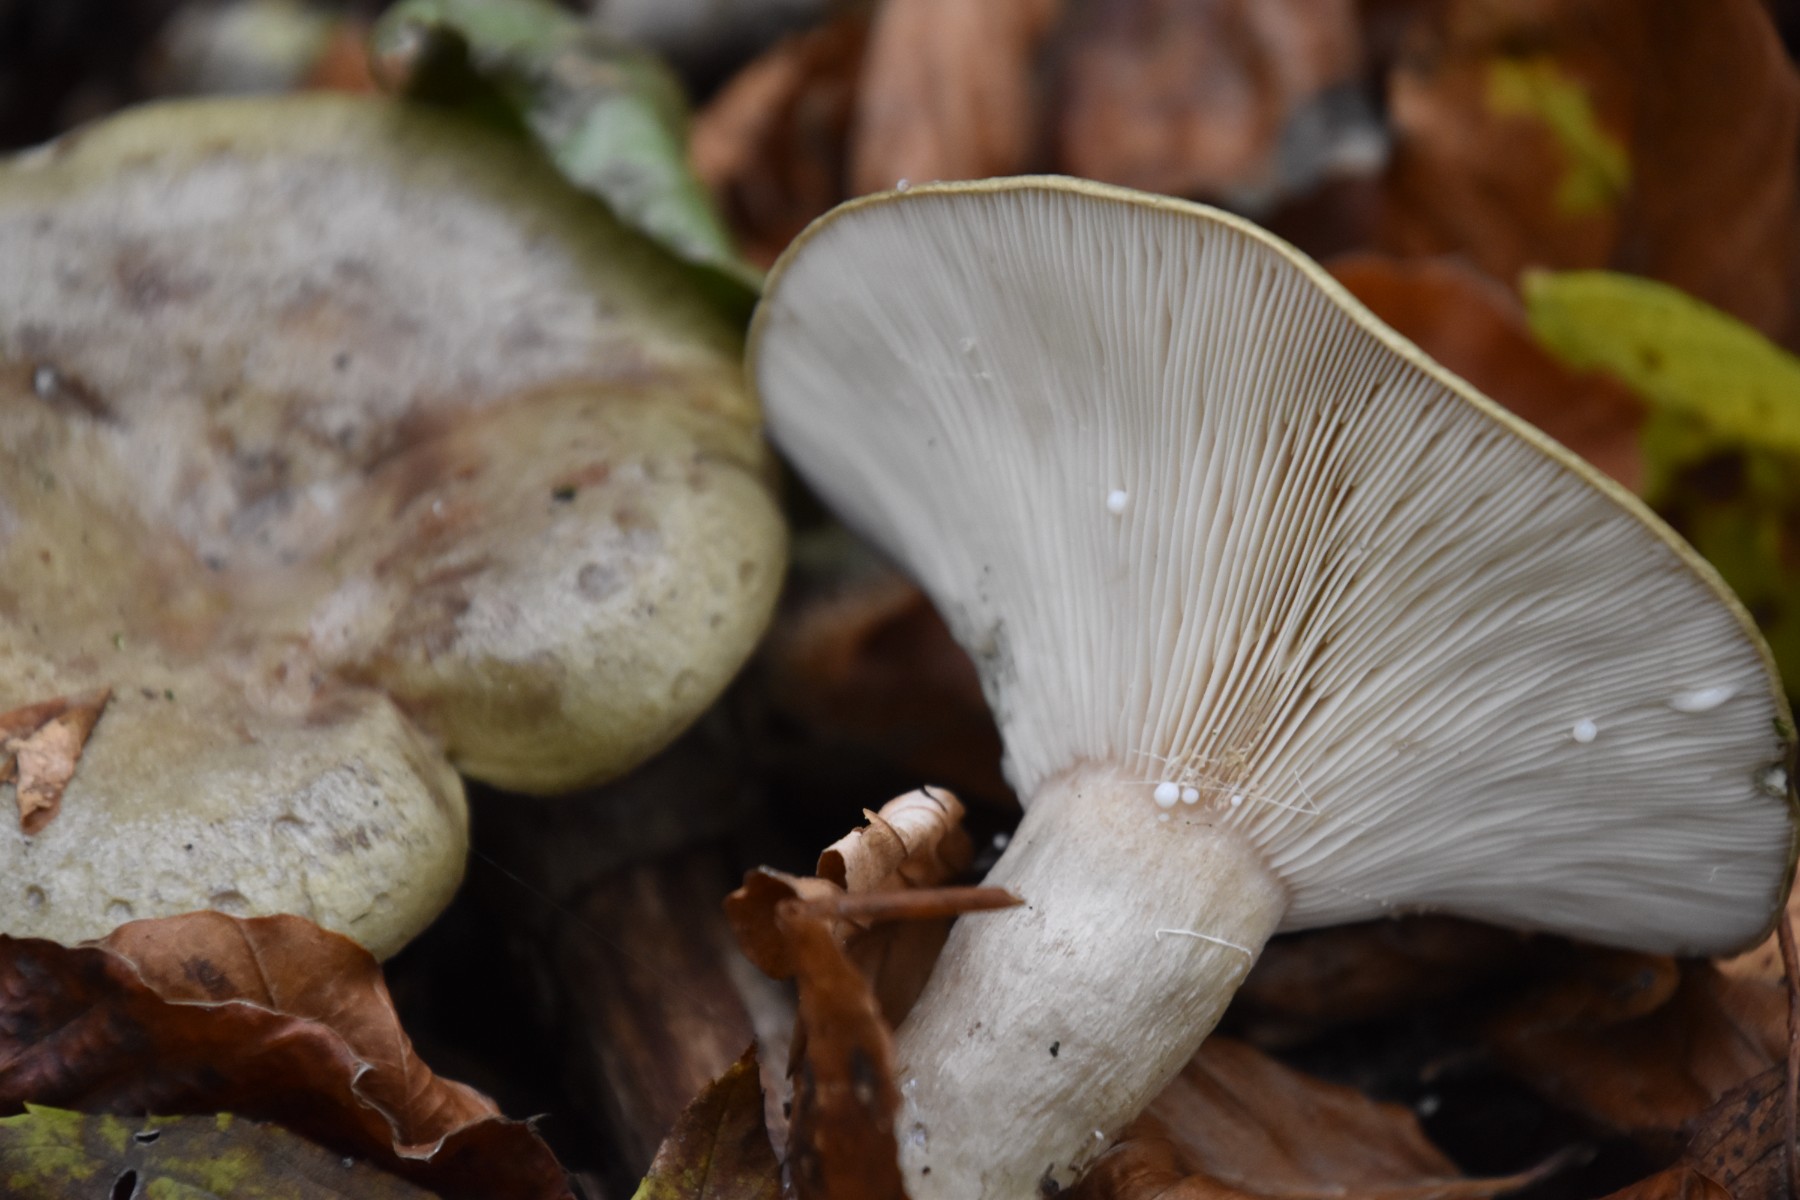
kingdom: Fungi
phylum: Basidiomycota
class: Agaricomycetes
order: Russulales
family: Russulaceae
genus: Lactarius
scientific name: Lactarius blennius
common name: dråbeplettet mælkehat
